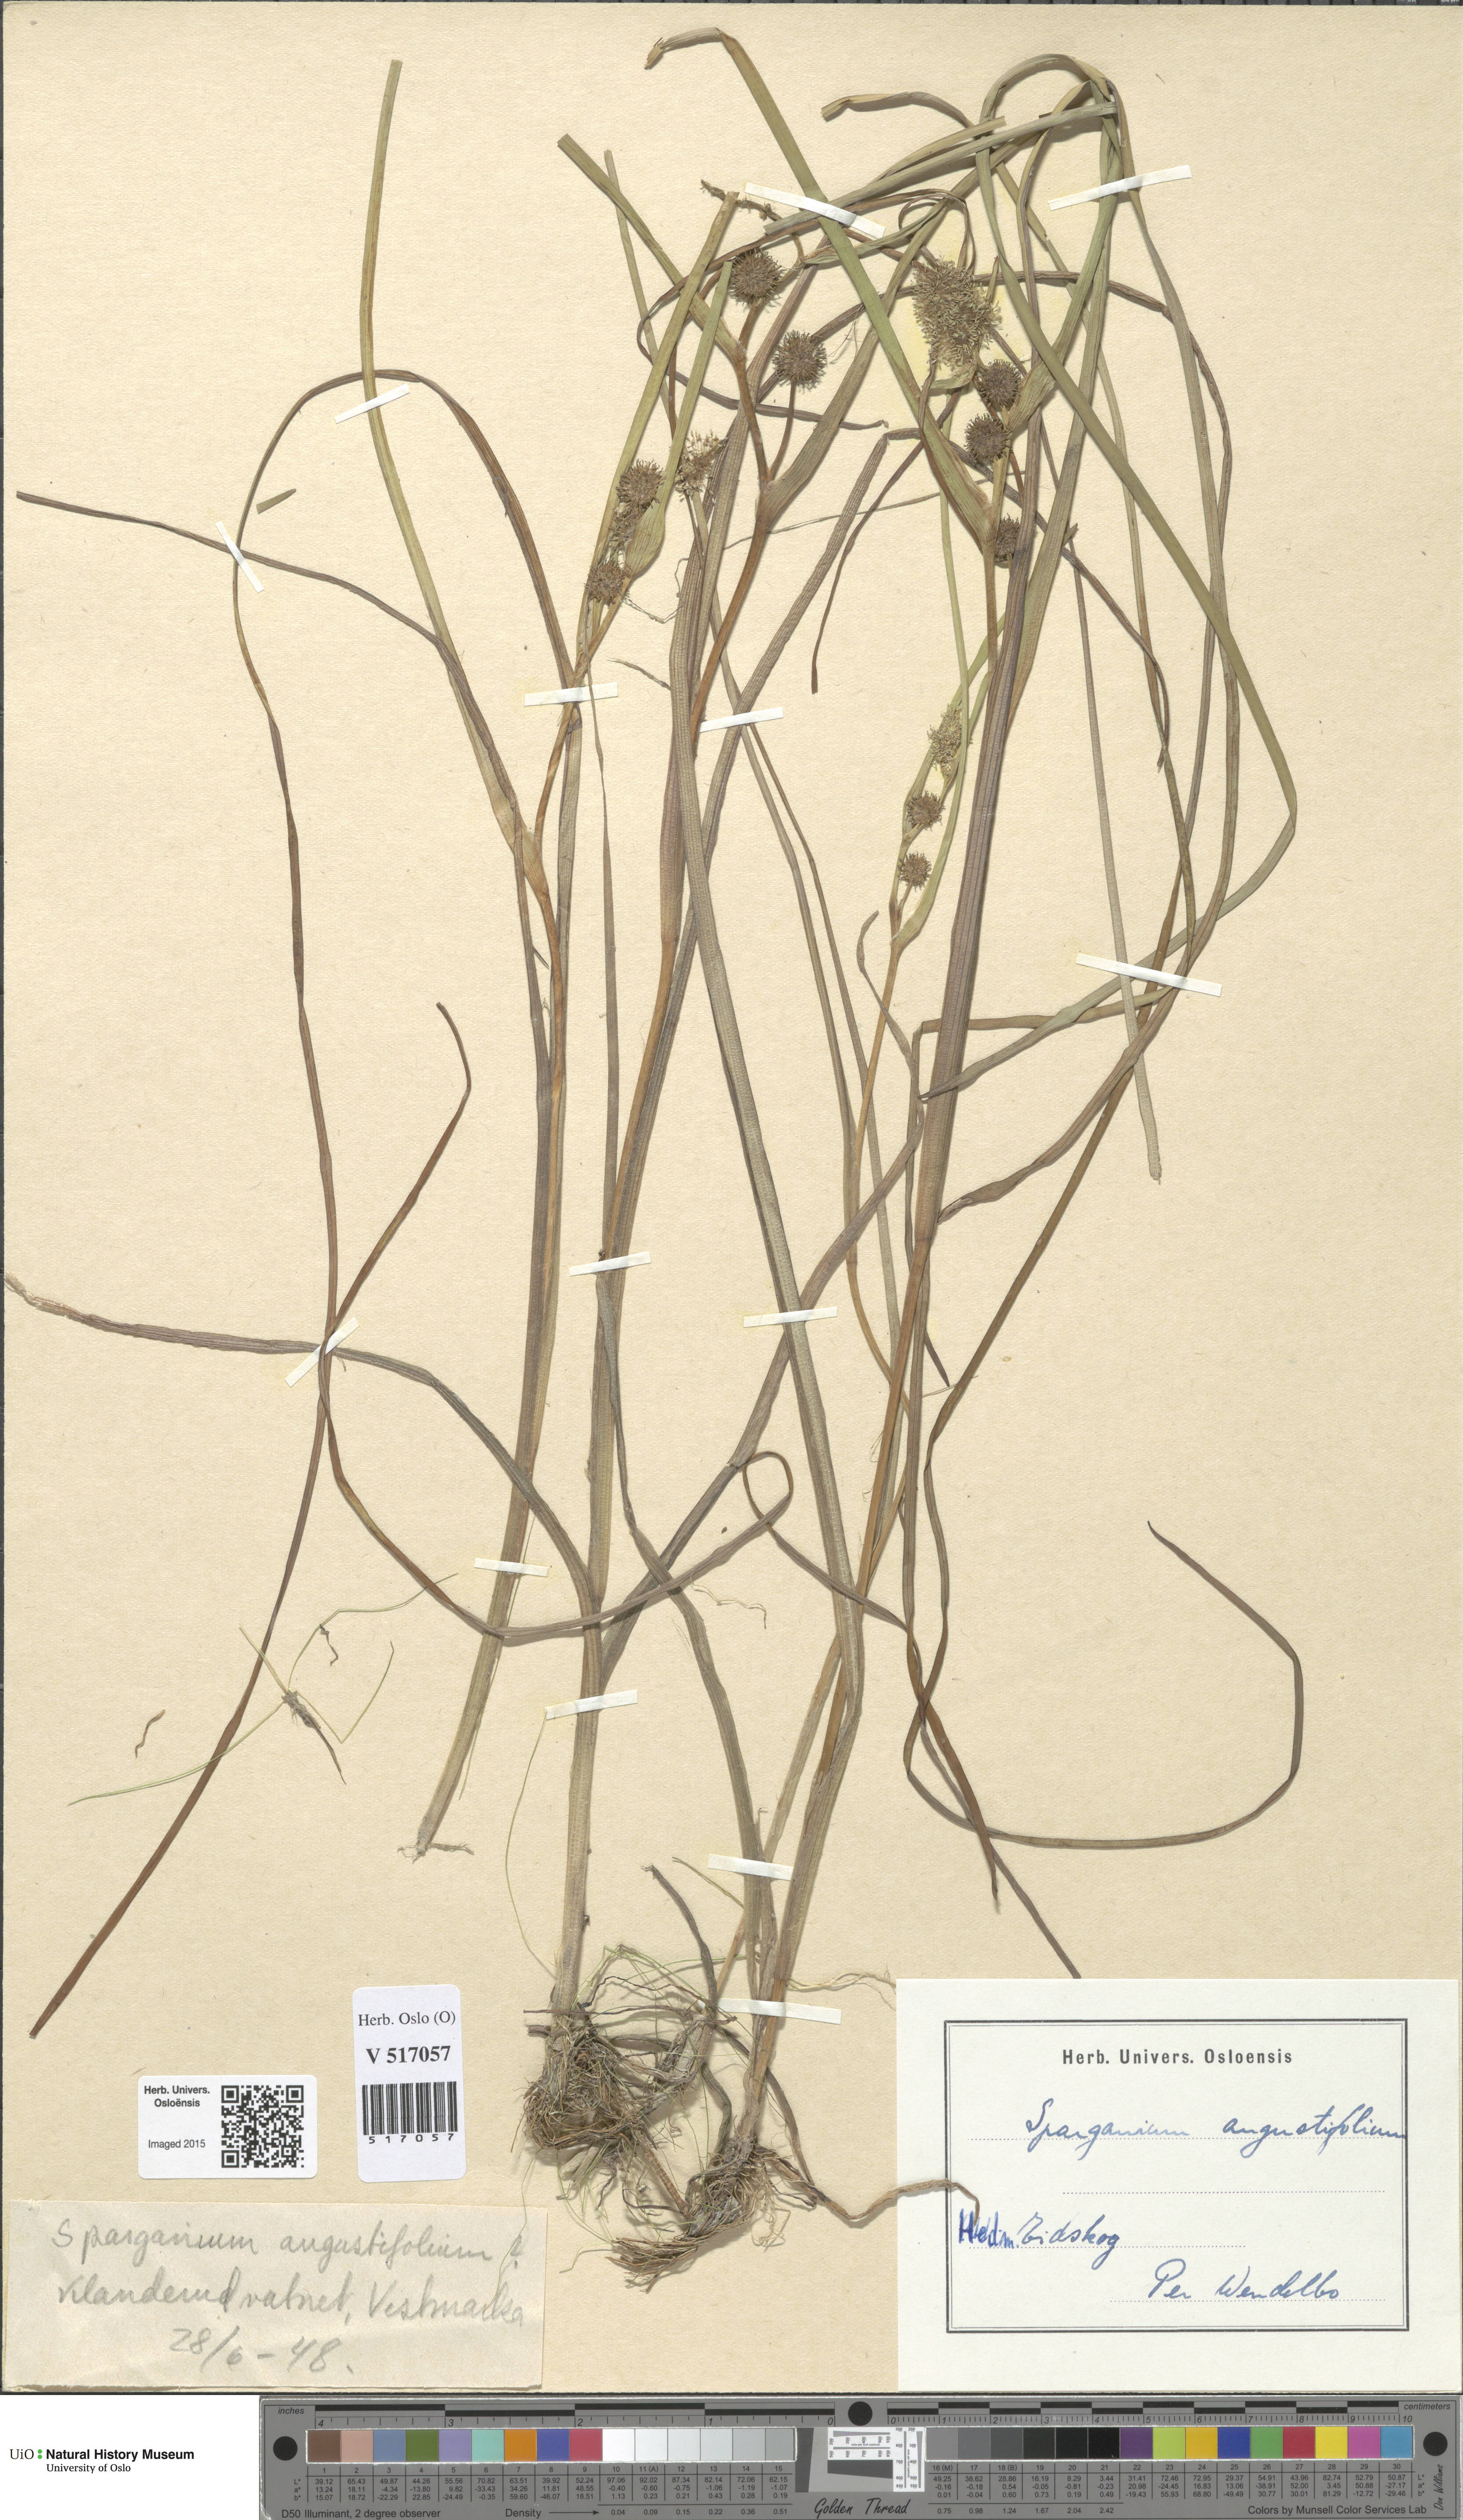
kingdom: Plantae
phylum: Tracheophyta
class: Liliopsida
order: Poales
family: Typhaceae
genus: Sparganium
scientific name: Sparganium angustifolium
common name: Floating bur-reed
